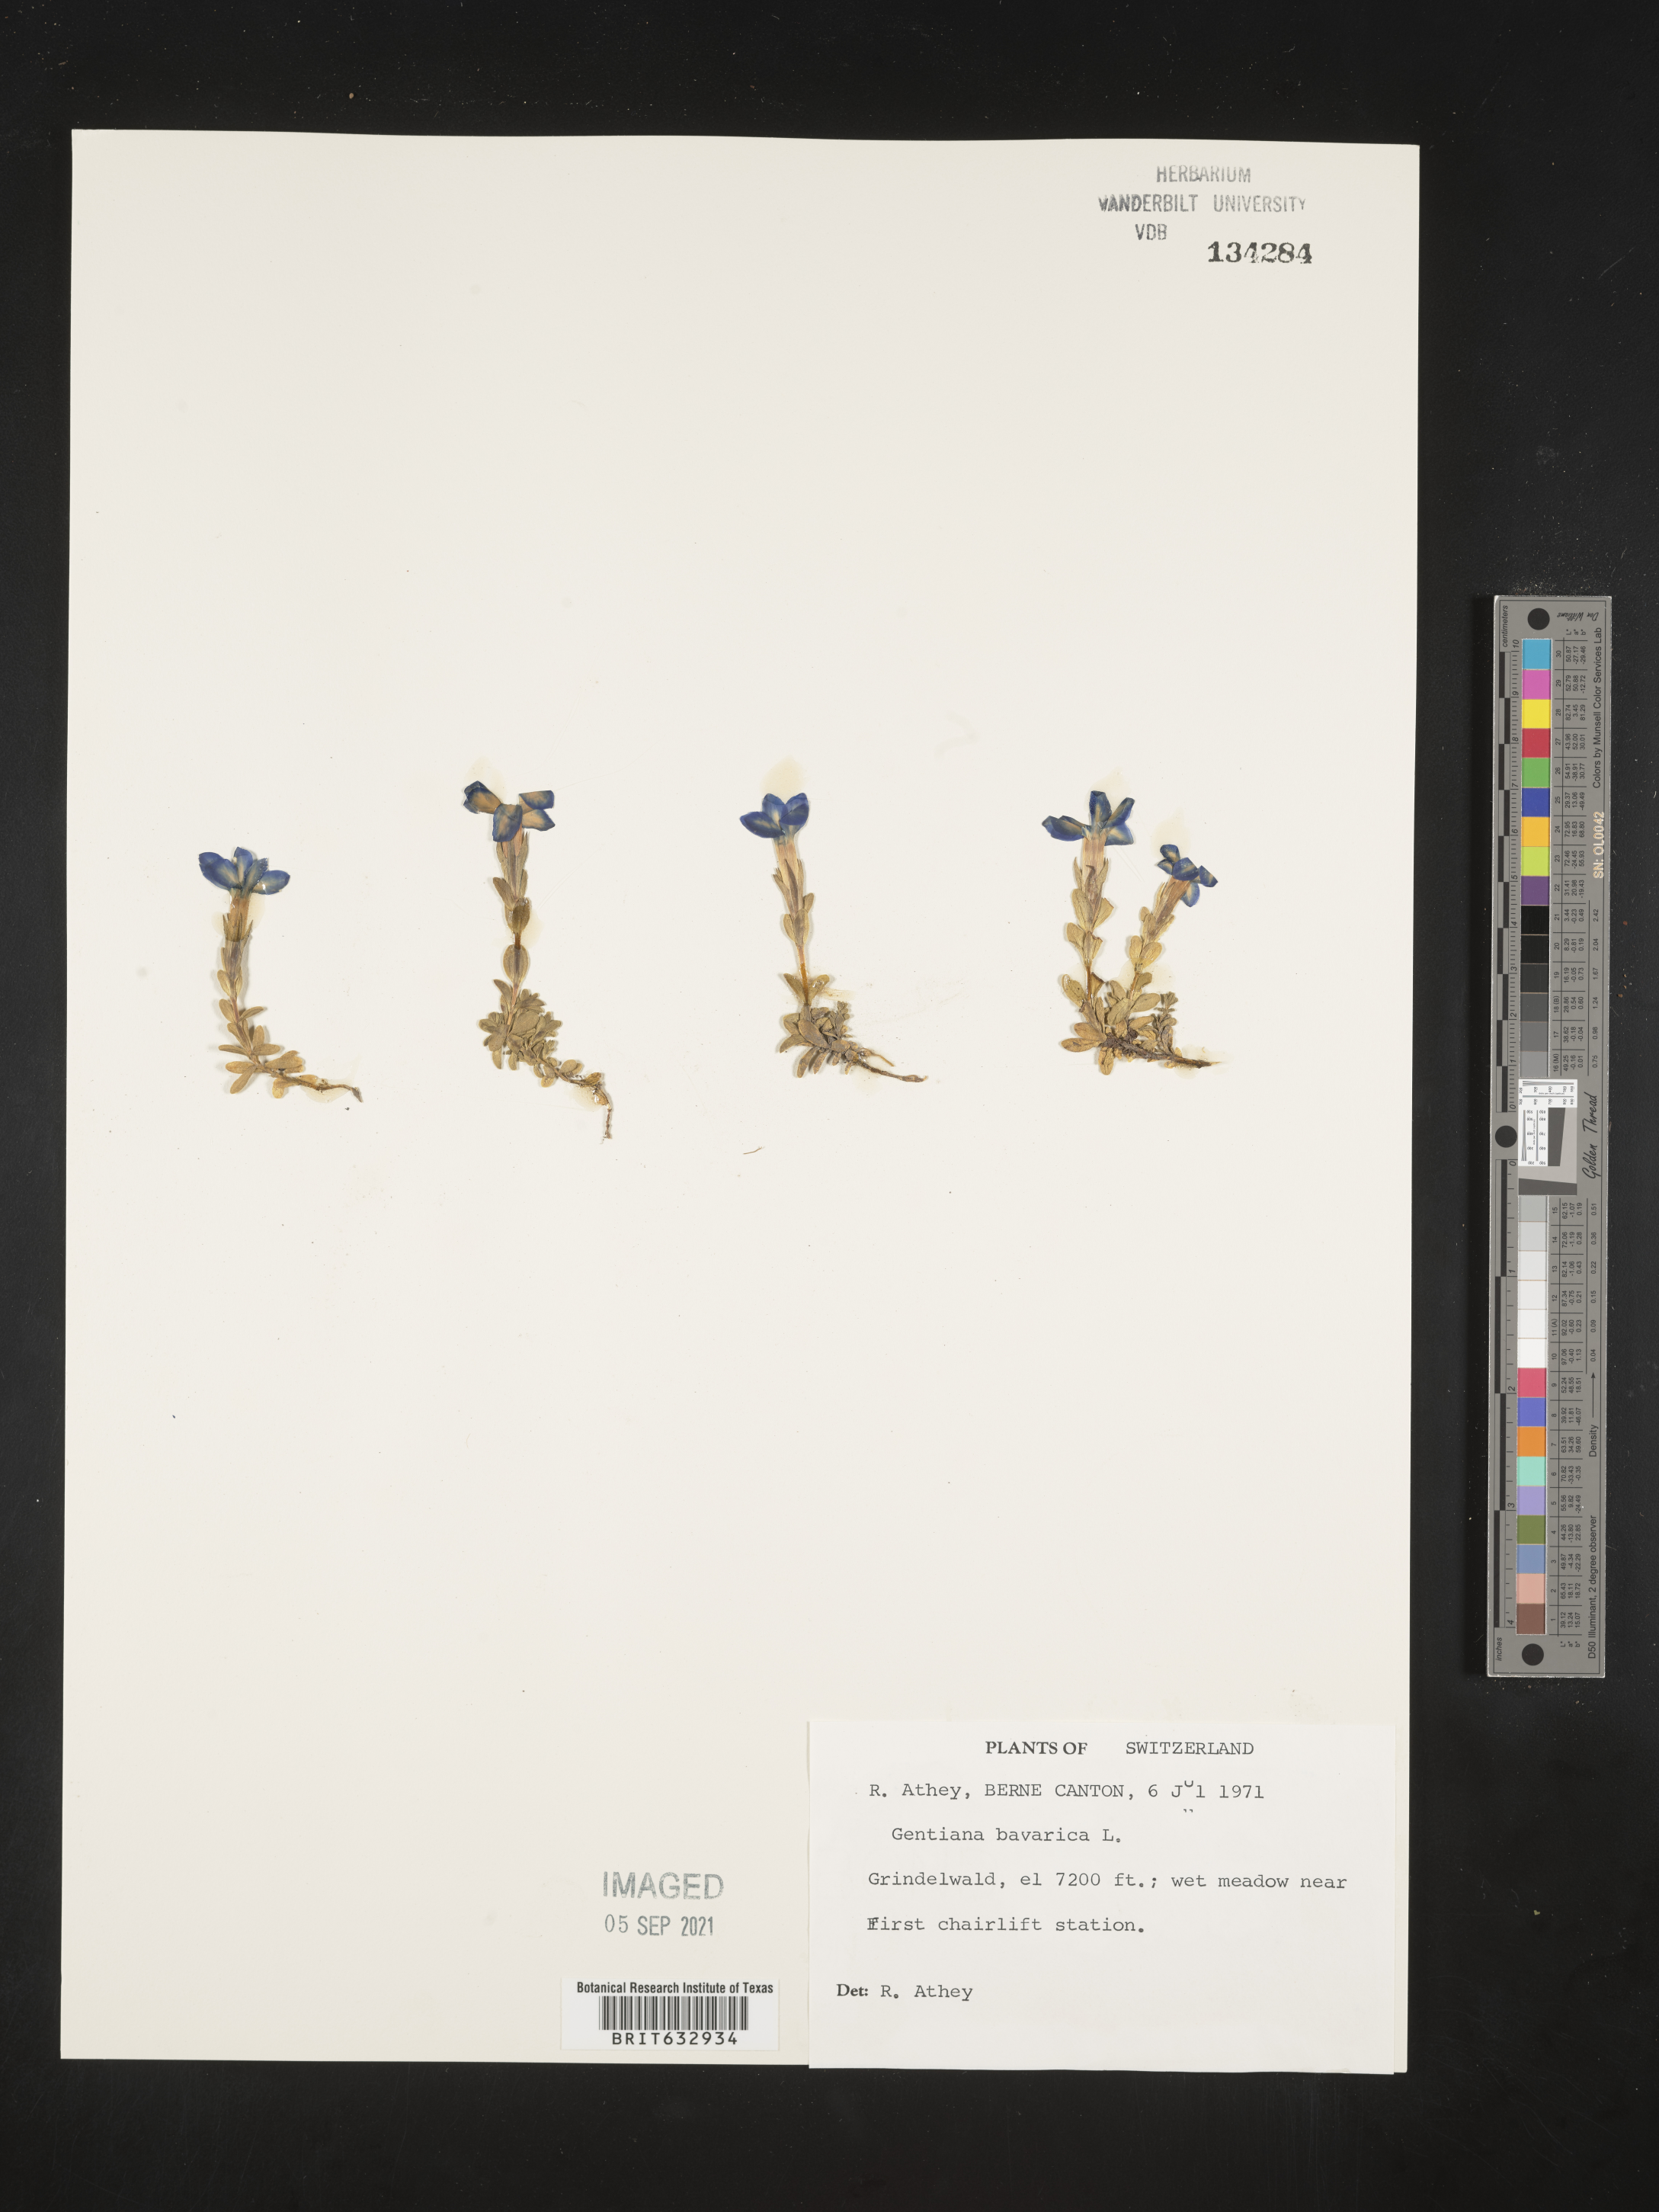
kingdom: Plantae
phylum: Tracheophyta
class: Magnoliopsida
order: Gentianales
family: Gentianaceae
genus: Gentiana
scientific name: Gentiana
